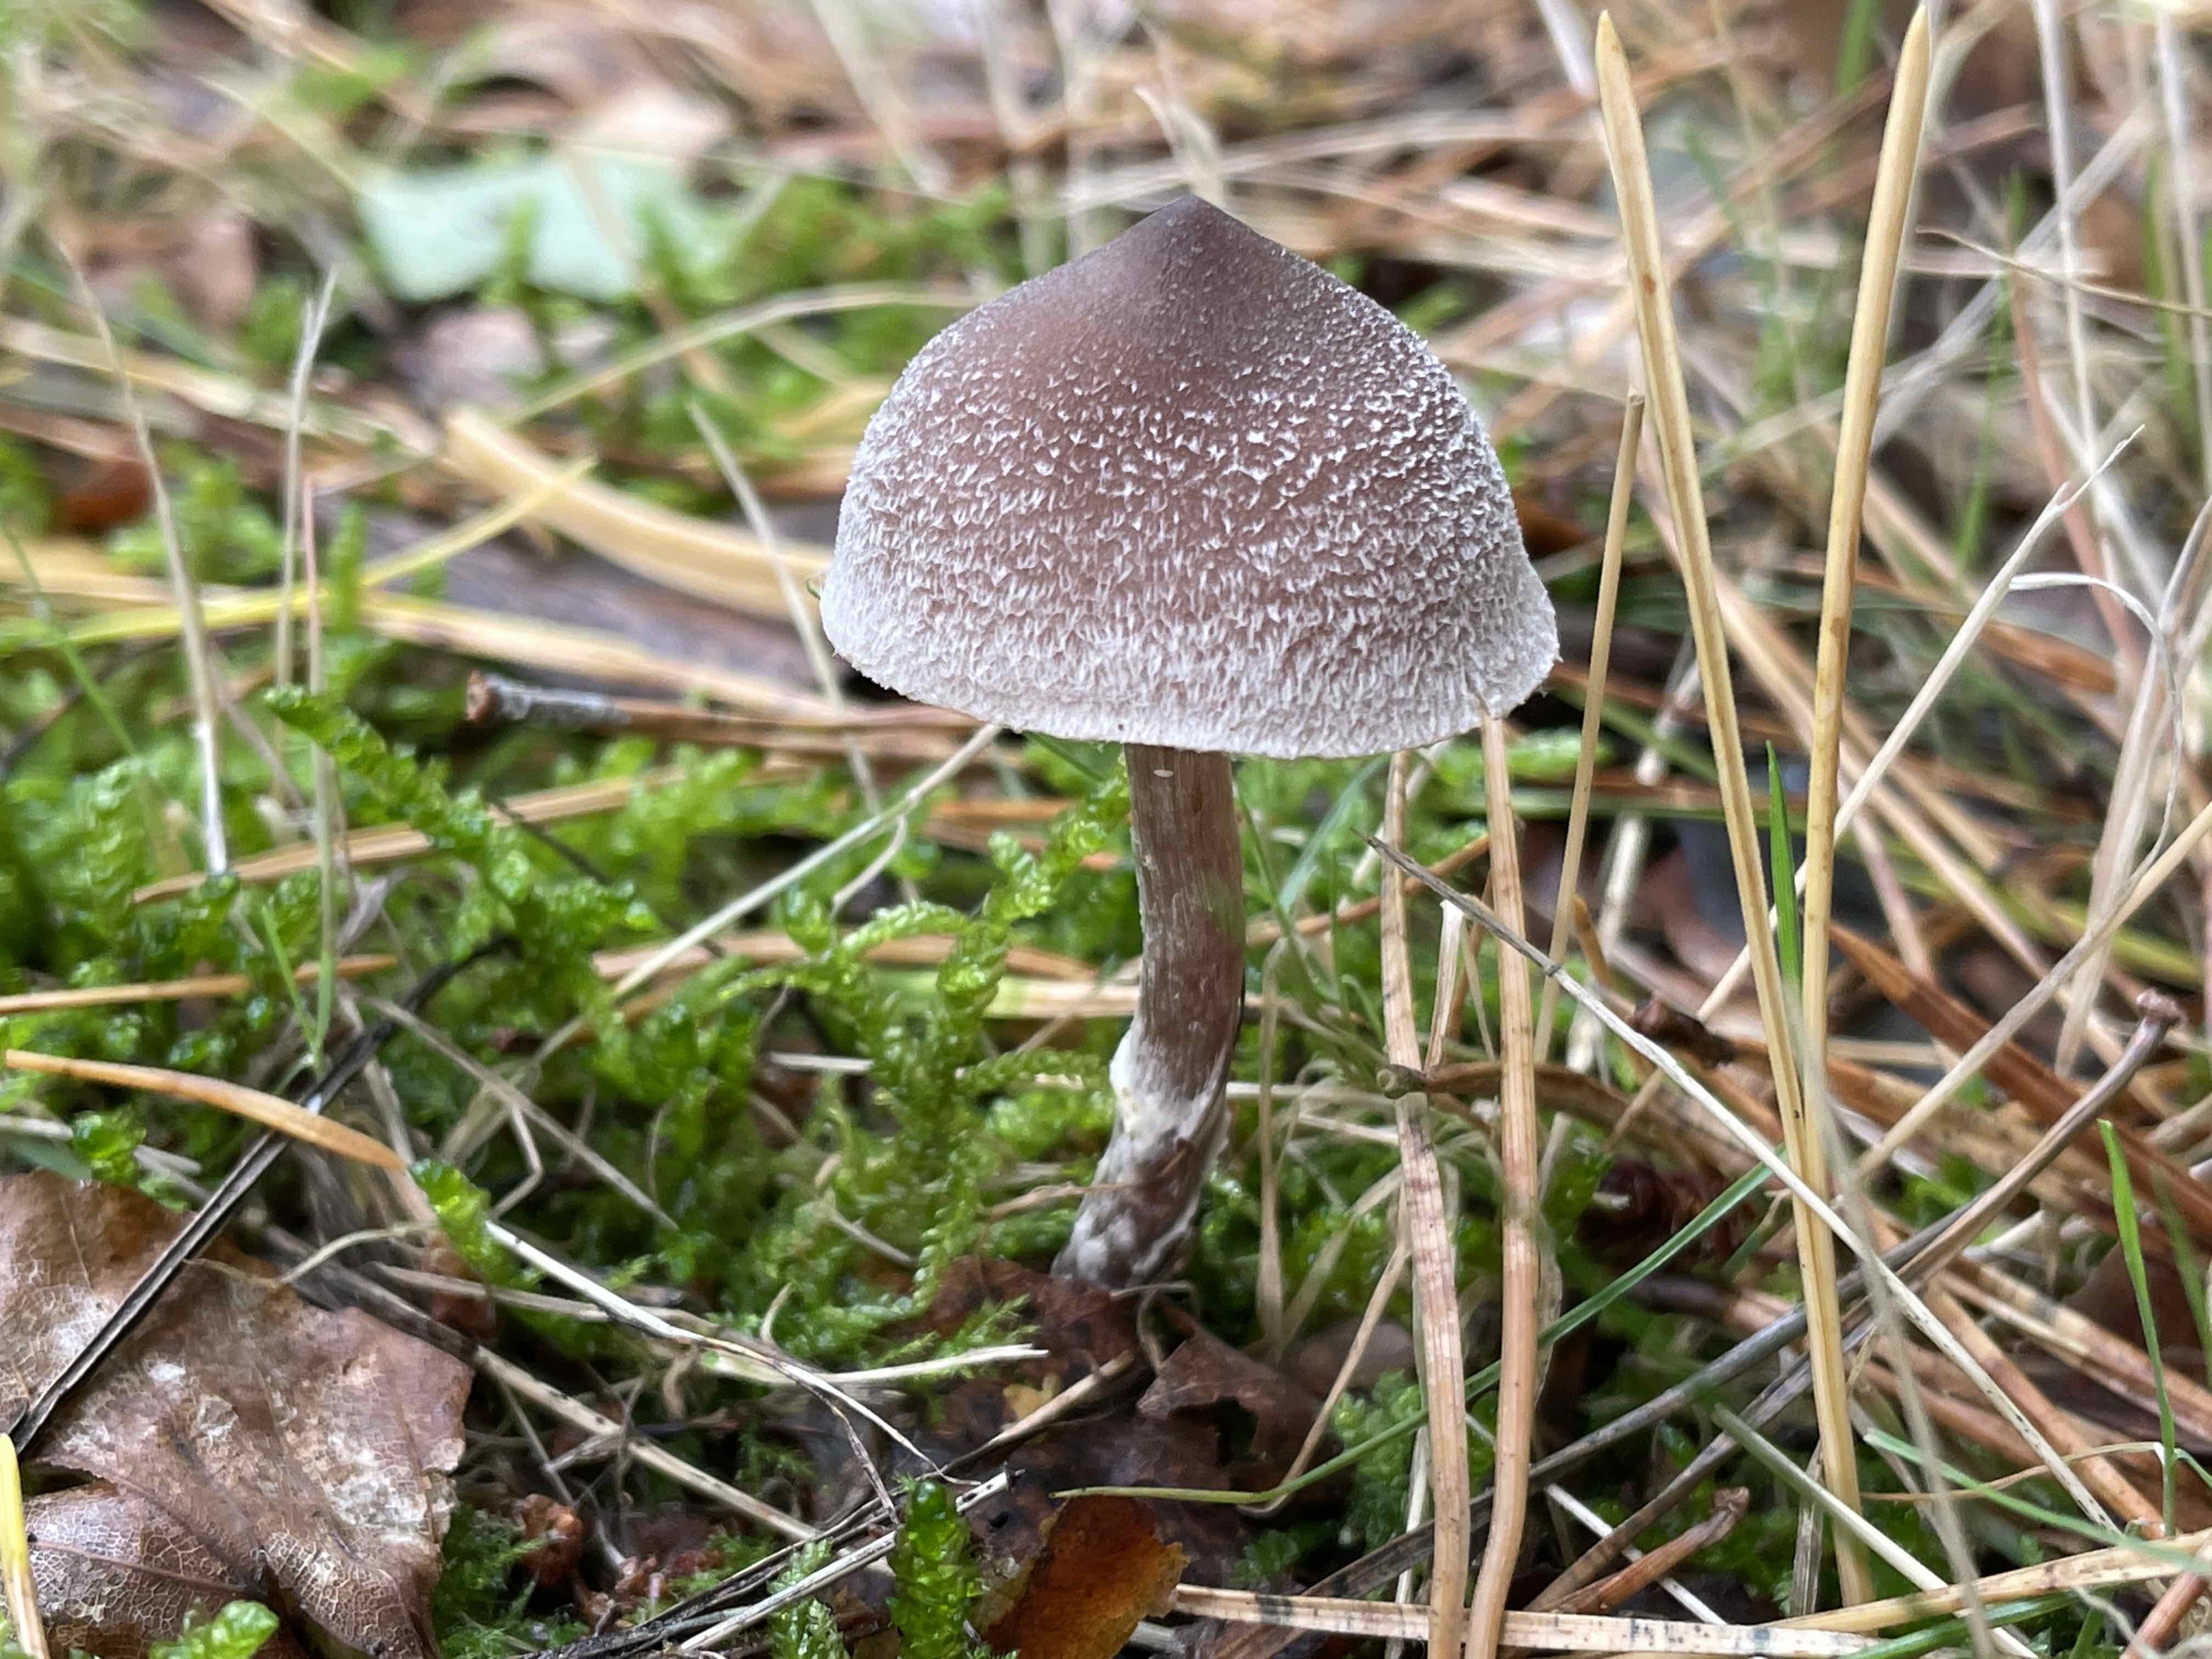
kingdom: Fungi
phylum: Basidiomycota
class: Agaricomycetes
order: Agaricales
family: Cortinariaceae
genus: Cortinarius
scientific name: Cortinarius hemitrichus
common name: hvidfnugget slørhat
